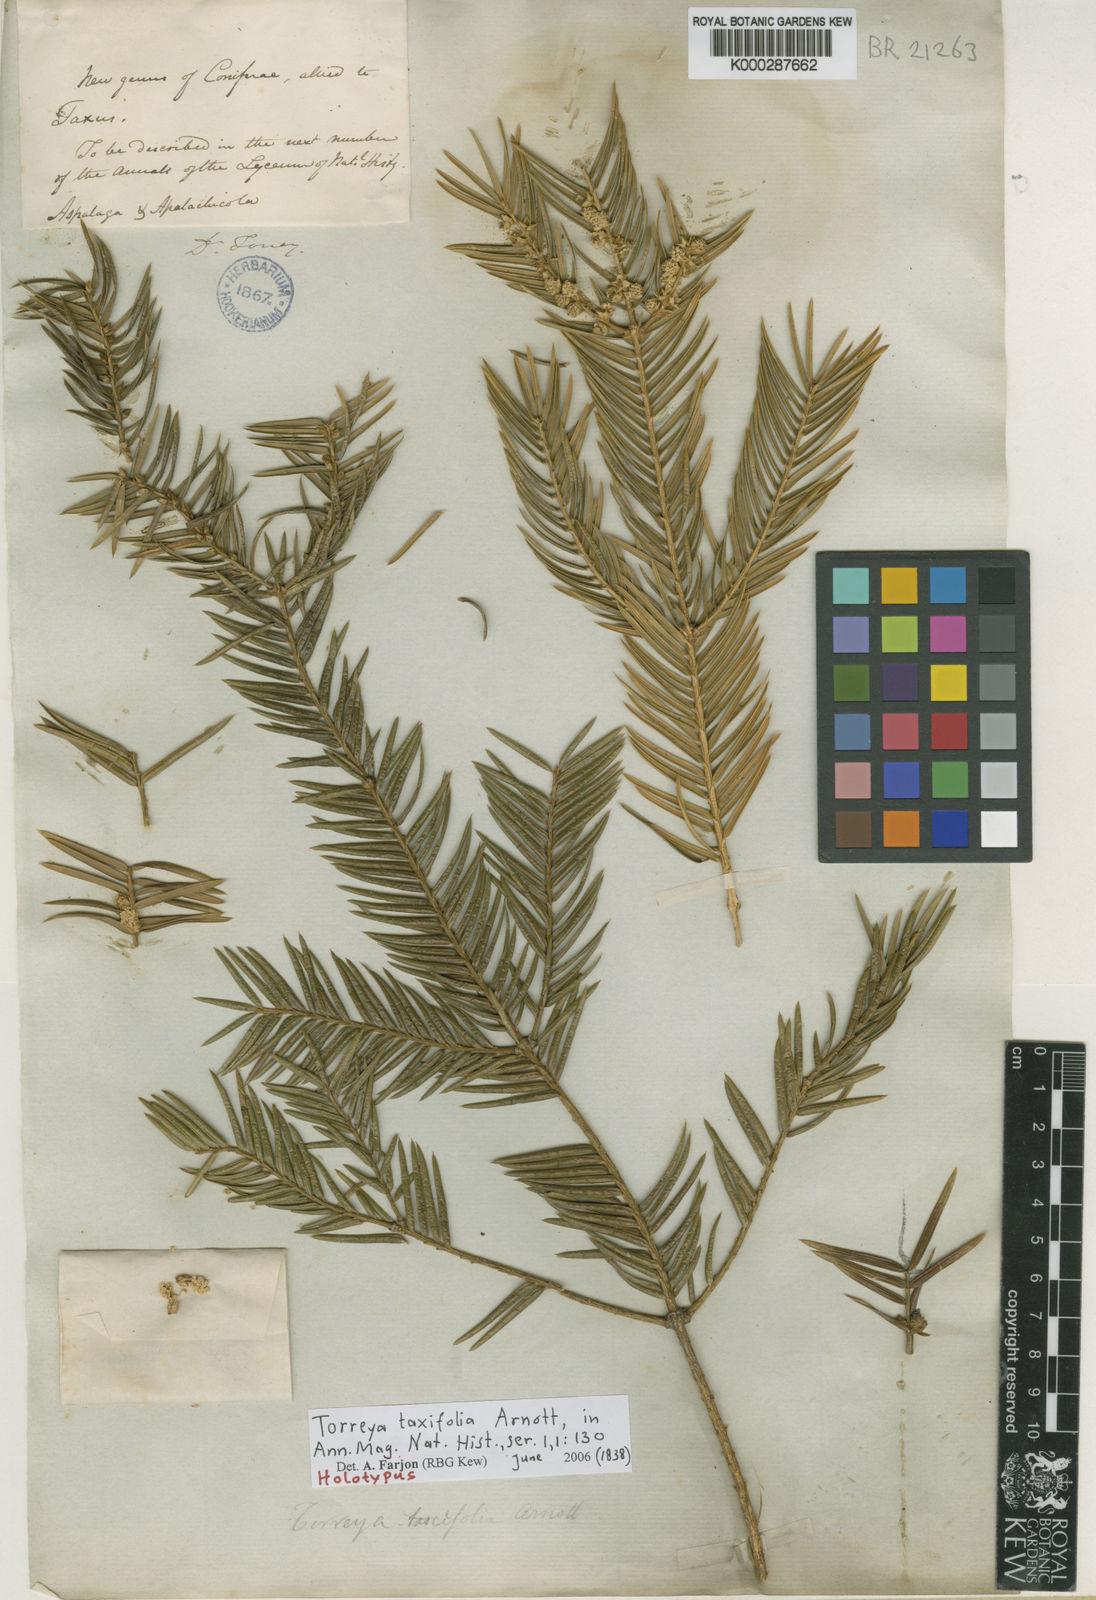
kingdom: Plantae
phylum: Tracheophyta
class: Pinopsida
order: Pinales
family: Taxaceae
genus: Torreya
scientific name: Torreya taxifolia
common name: Florida torreya
